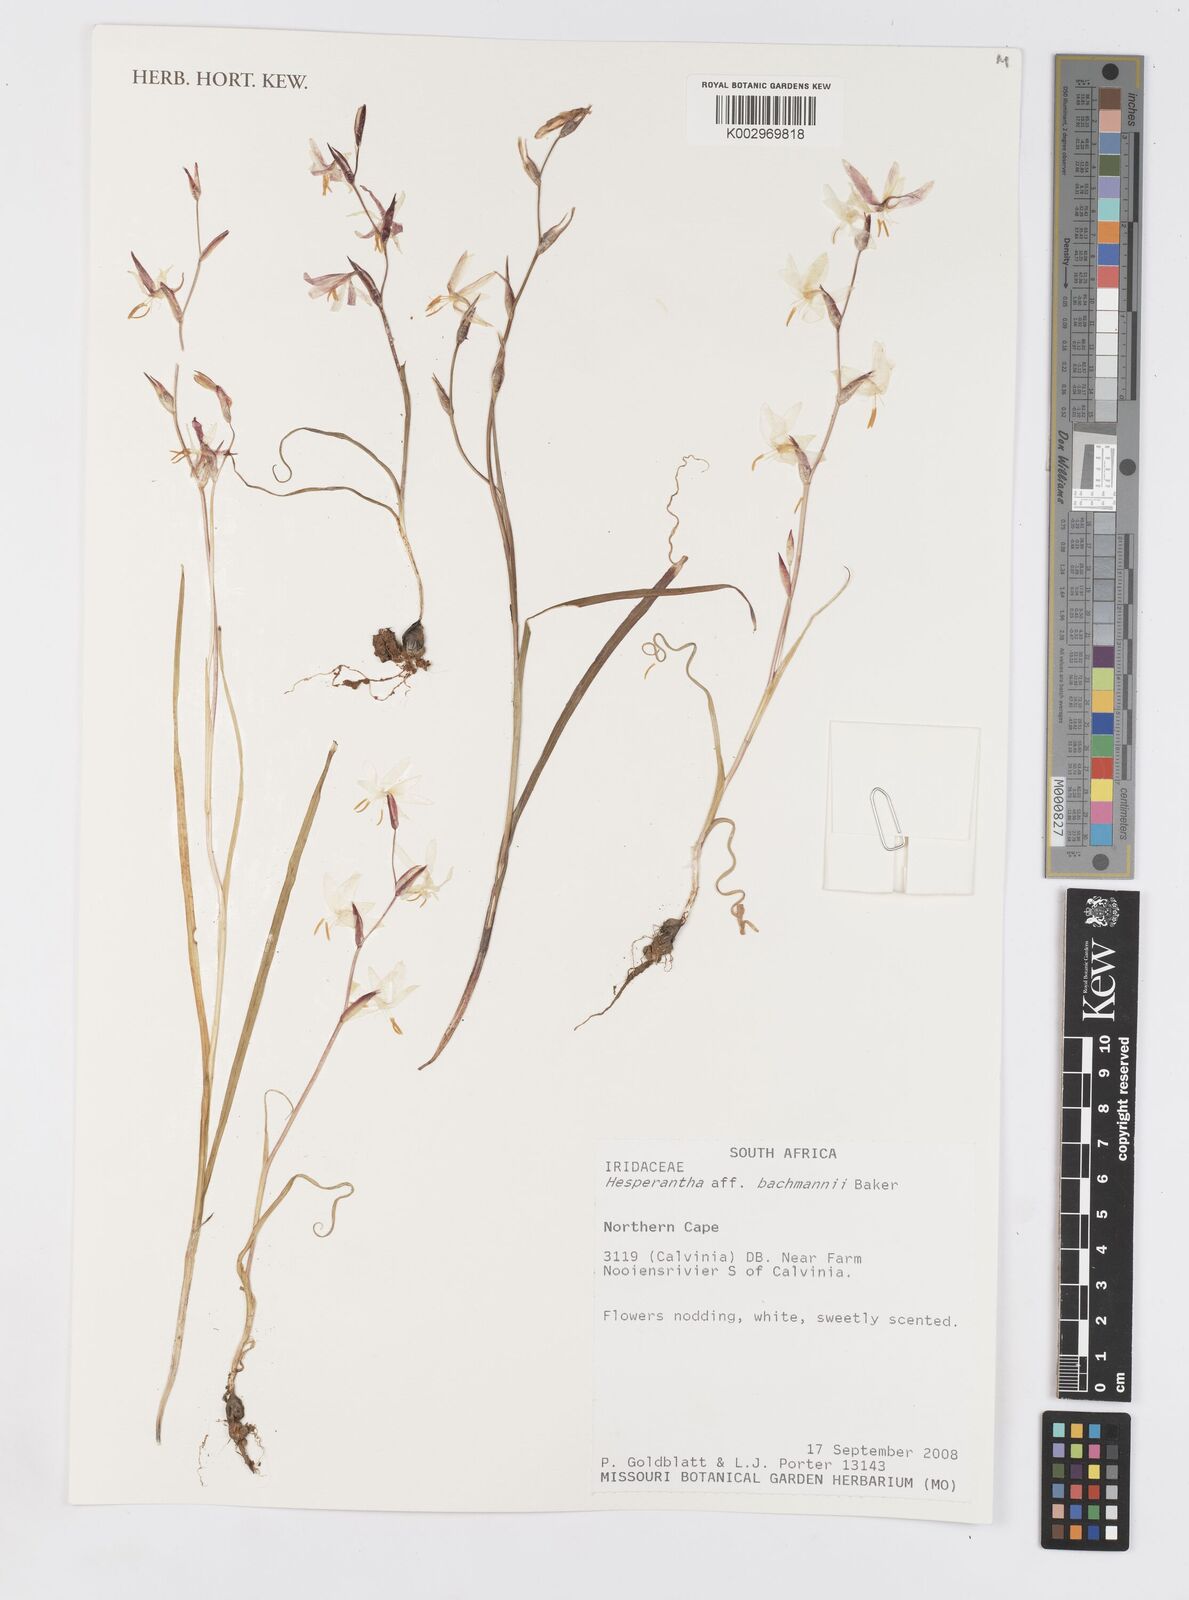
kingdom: Plantae
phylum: Tracheophyta
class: Liliopsida
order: Asparagales
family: Iridaceae
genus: Hesperantha
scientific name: Hesperantha bachmannii
